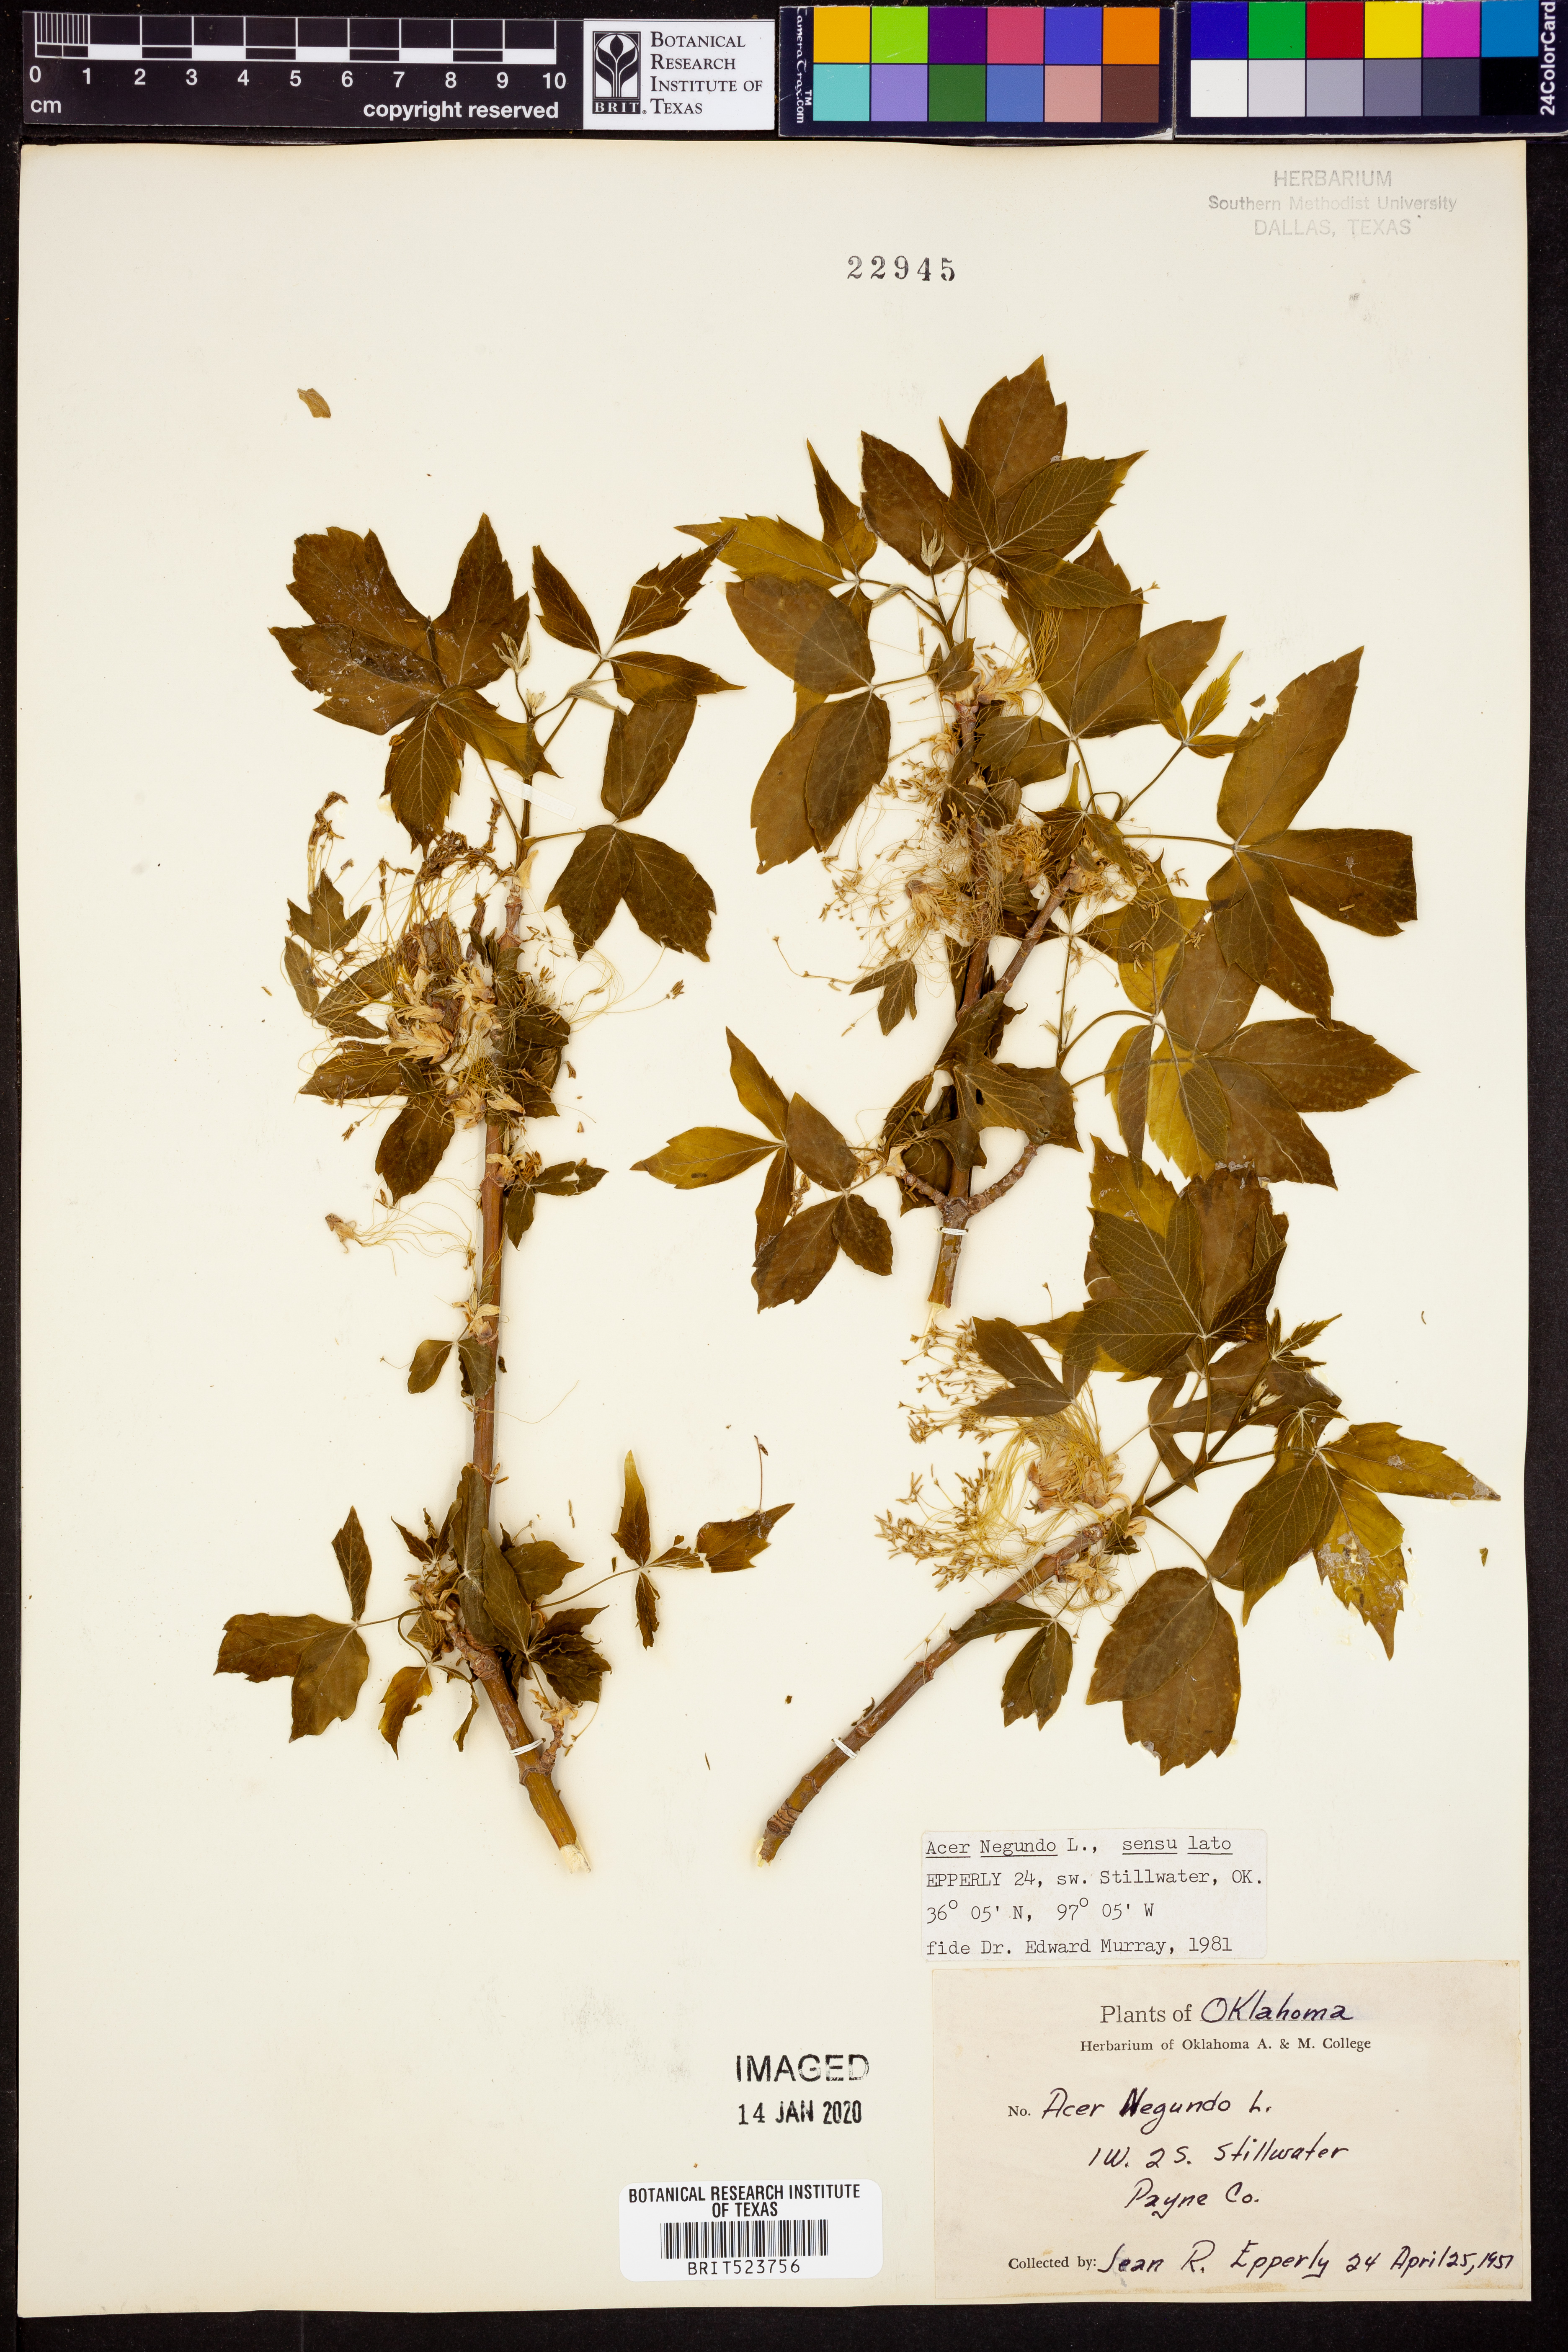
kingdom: Plantae
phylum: Tracheophyta
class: Magnoliopsida
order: Sapindales
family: Sapindaceae
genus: Acer
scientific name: Acer negundo
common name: Ashleaf maple
